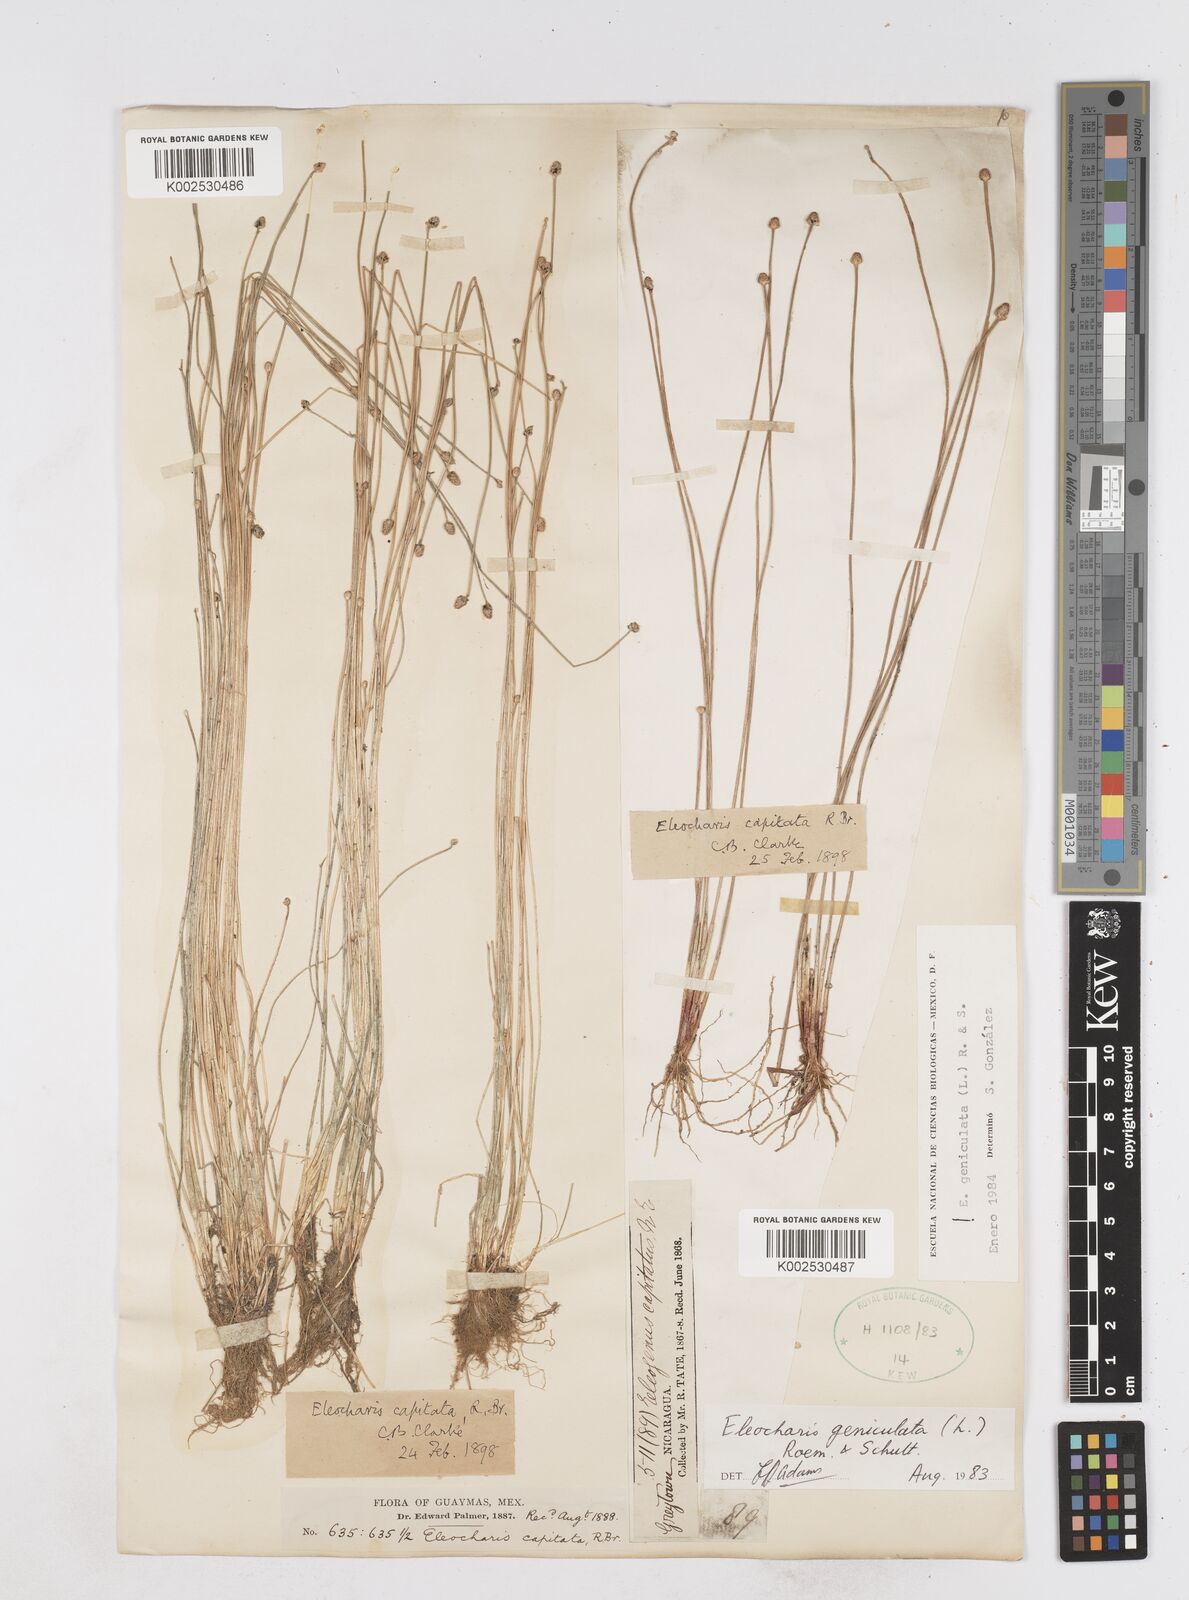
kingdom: Plantae
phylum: Tracheophyta
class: Liliopsida
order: Poales
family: Cyperaceae
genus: Eleocharis
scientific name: Eleocharis geniculata
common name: Canada spikesedge
